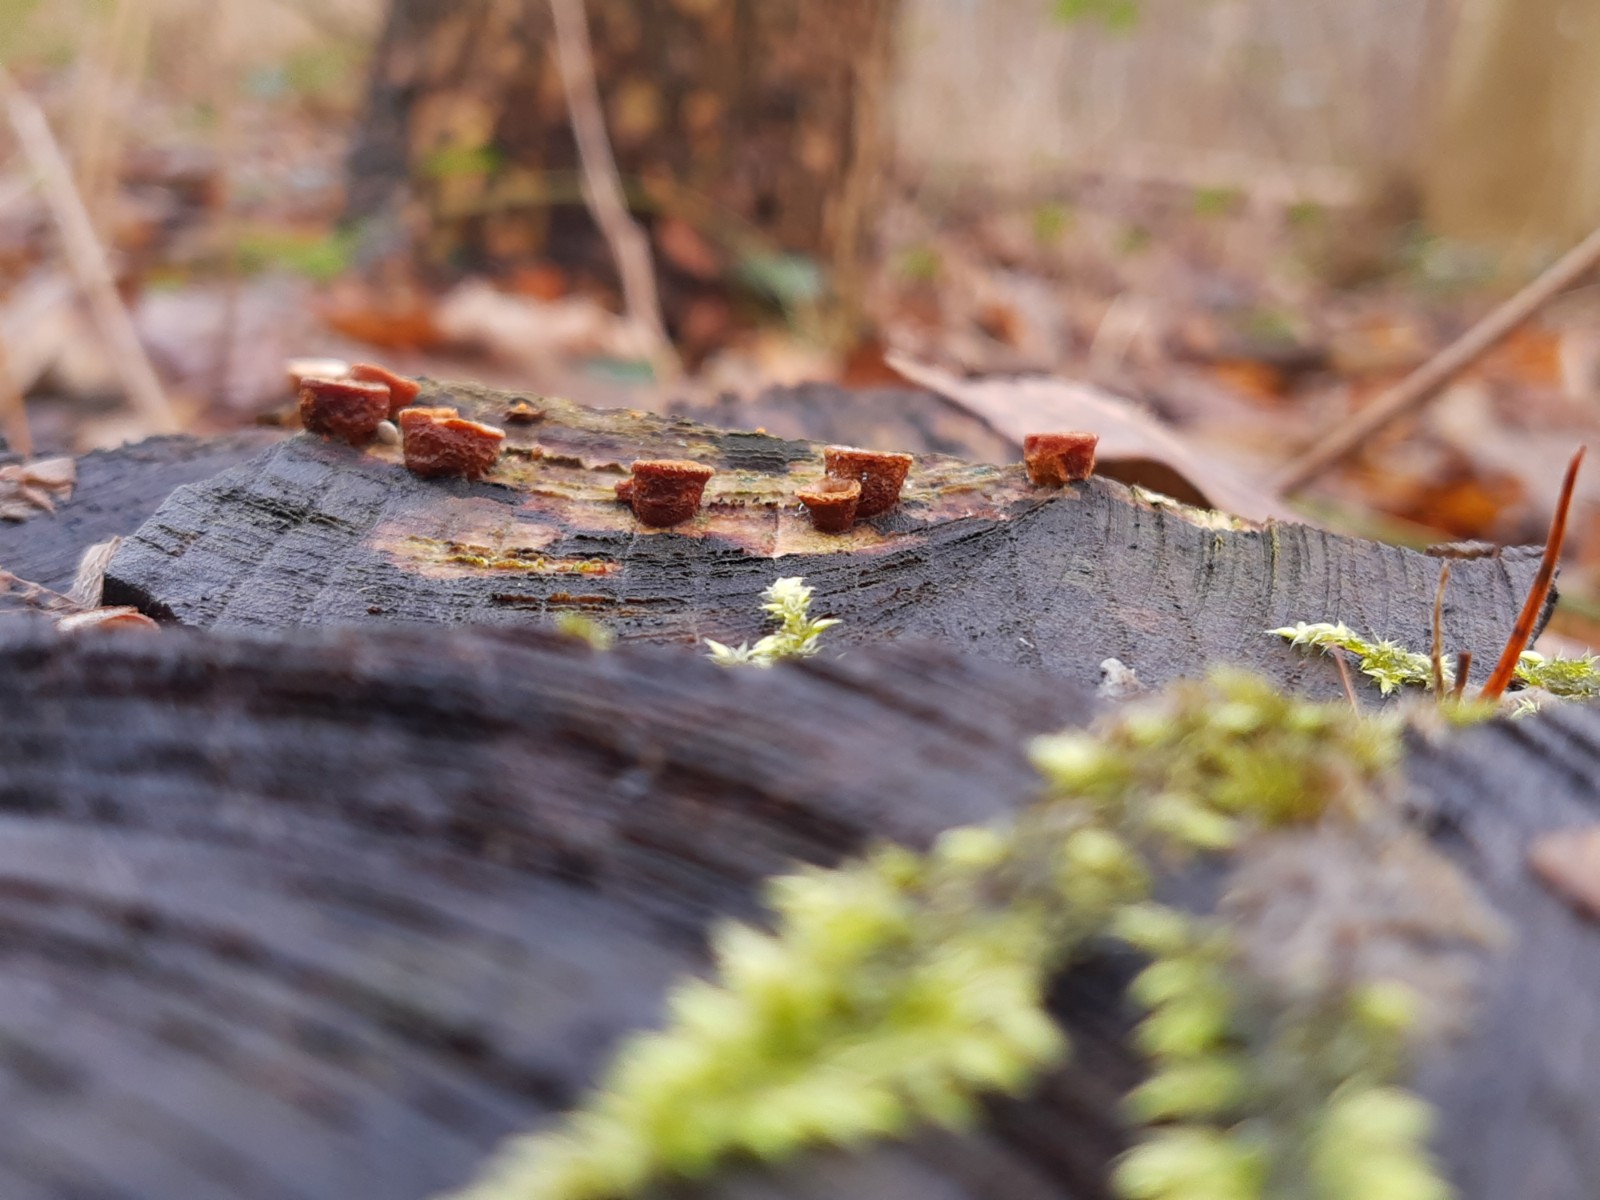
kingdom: Fungi
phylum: Basidiomycota
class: Agaricomycetes
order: Agaricales
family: Nidulariaceae
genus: Crucibulum
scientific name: Crucibulum crucibuliforme
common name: krukkesvamp
